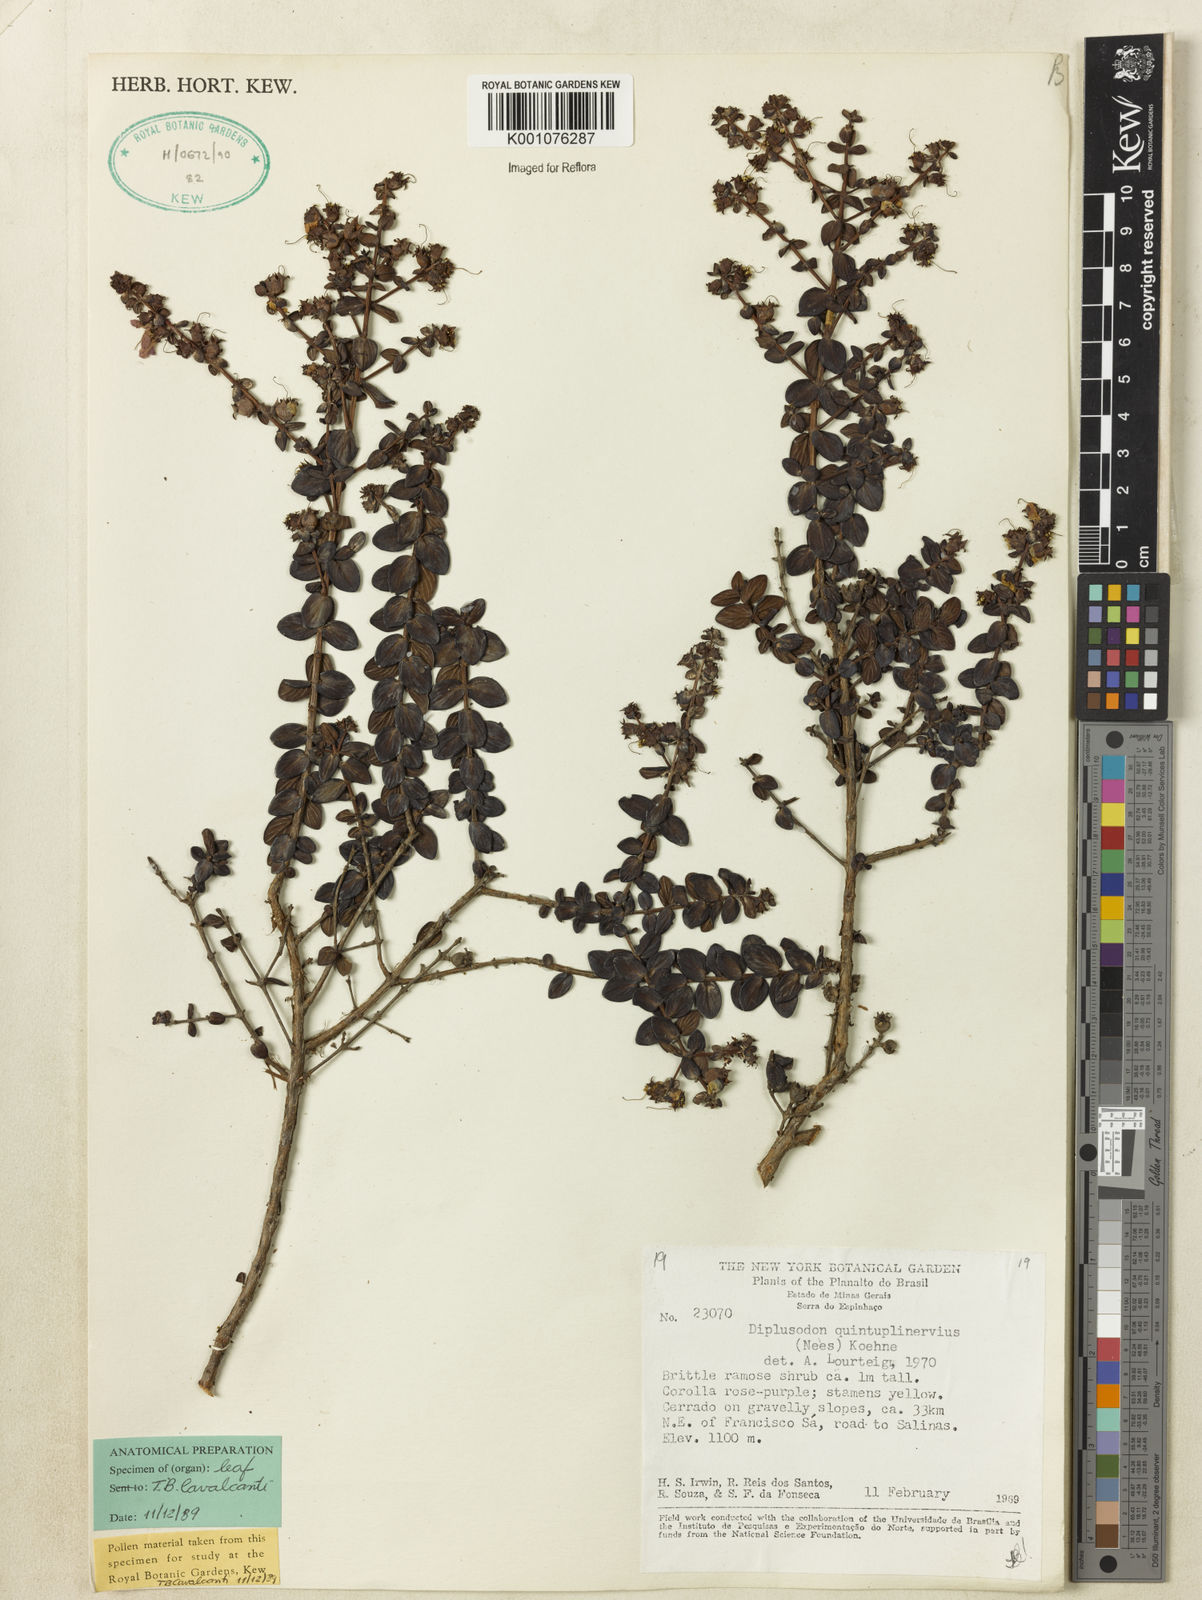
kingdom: Plantae
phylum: Tracheophyta
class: Magnoliopsida
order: Myrtales
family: Lythraceae
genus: Diplusodon
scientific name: Diplusodon quintuplinervius
